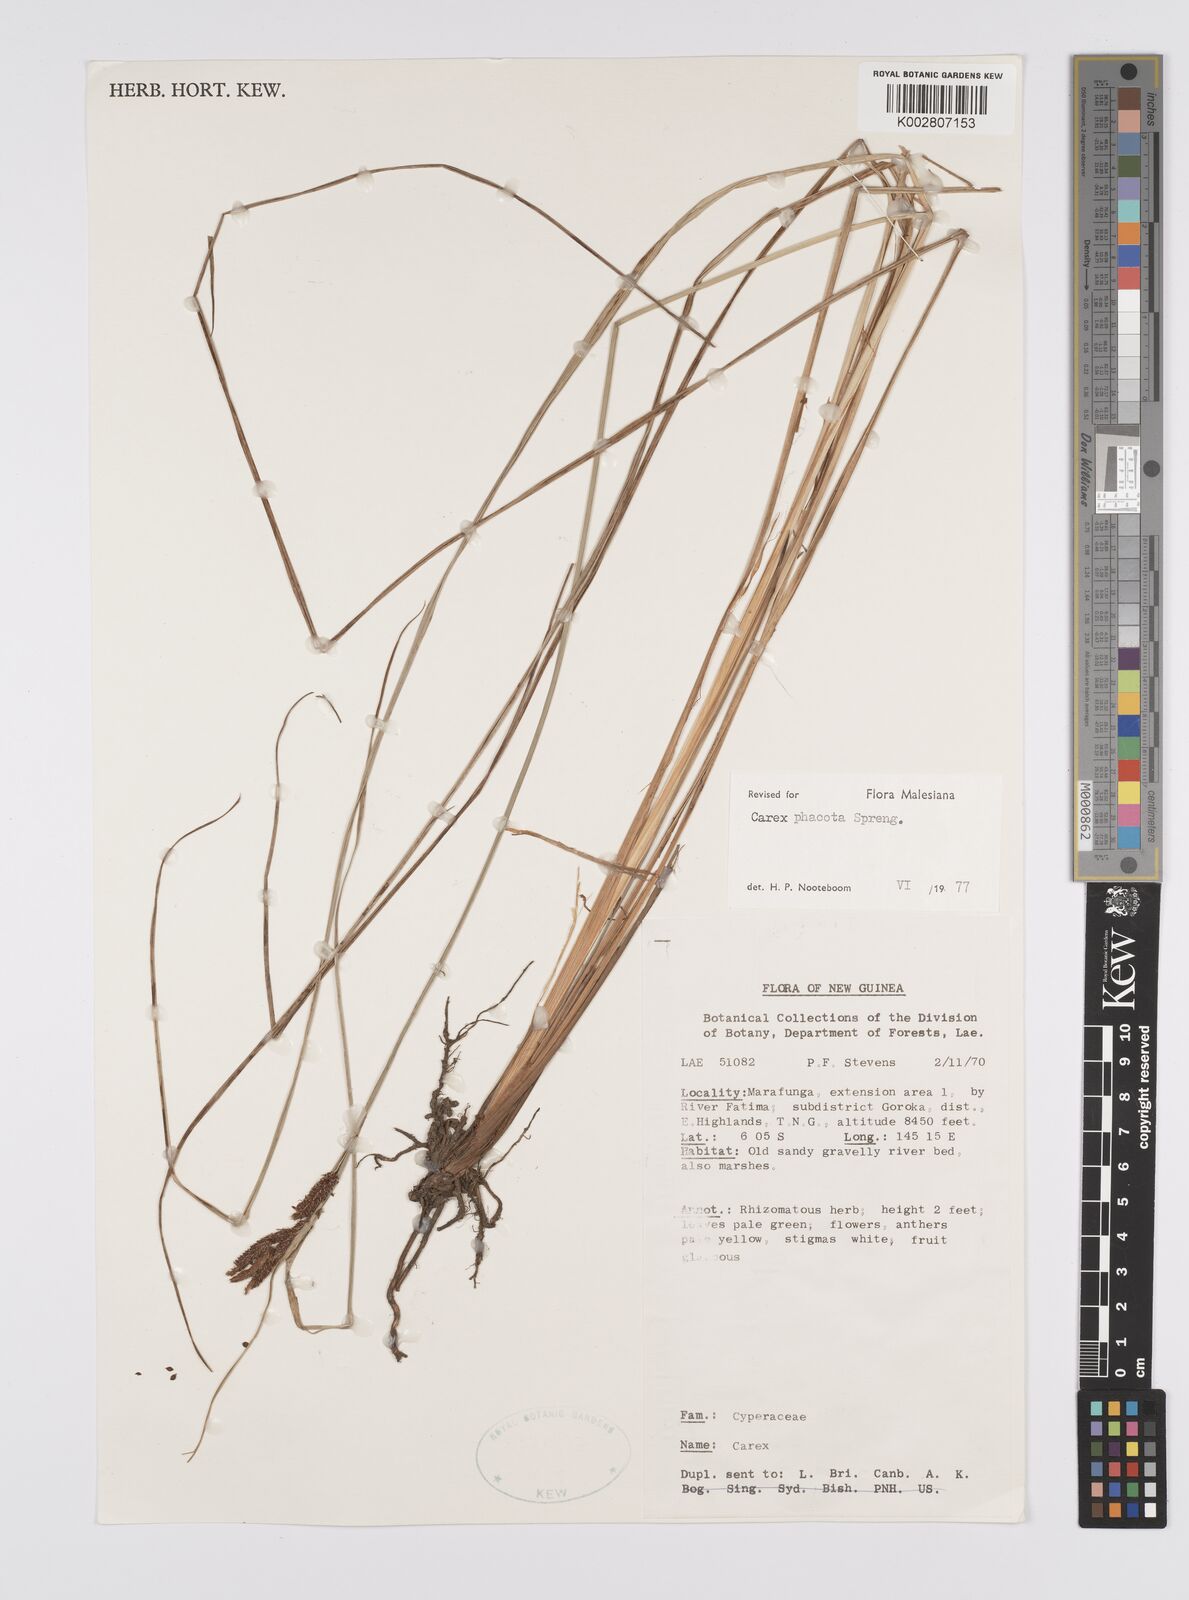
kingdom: Plantae
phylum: Tracheophyta
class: Liliopsida
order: Poales
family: Cyperaceae
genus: Carex
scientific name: Carex phacota
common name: Lakeshore sedge
